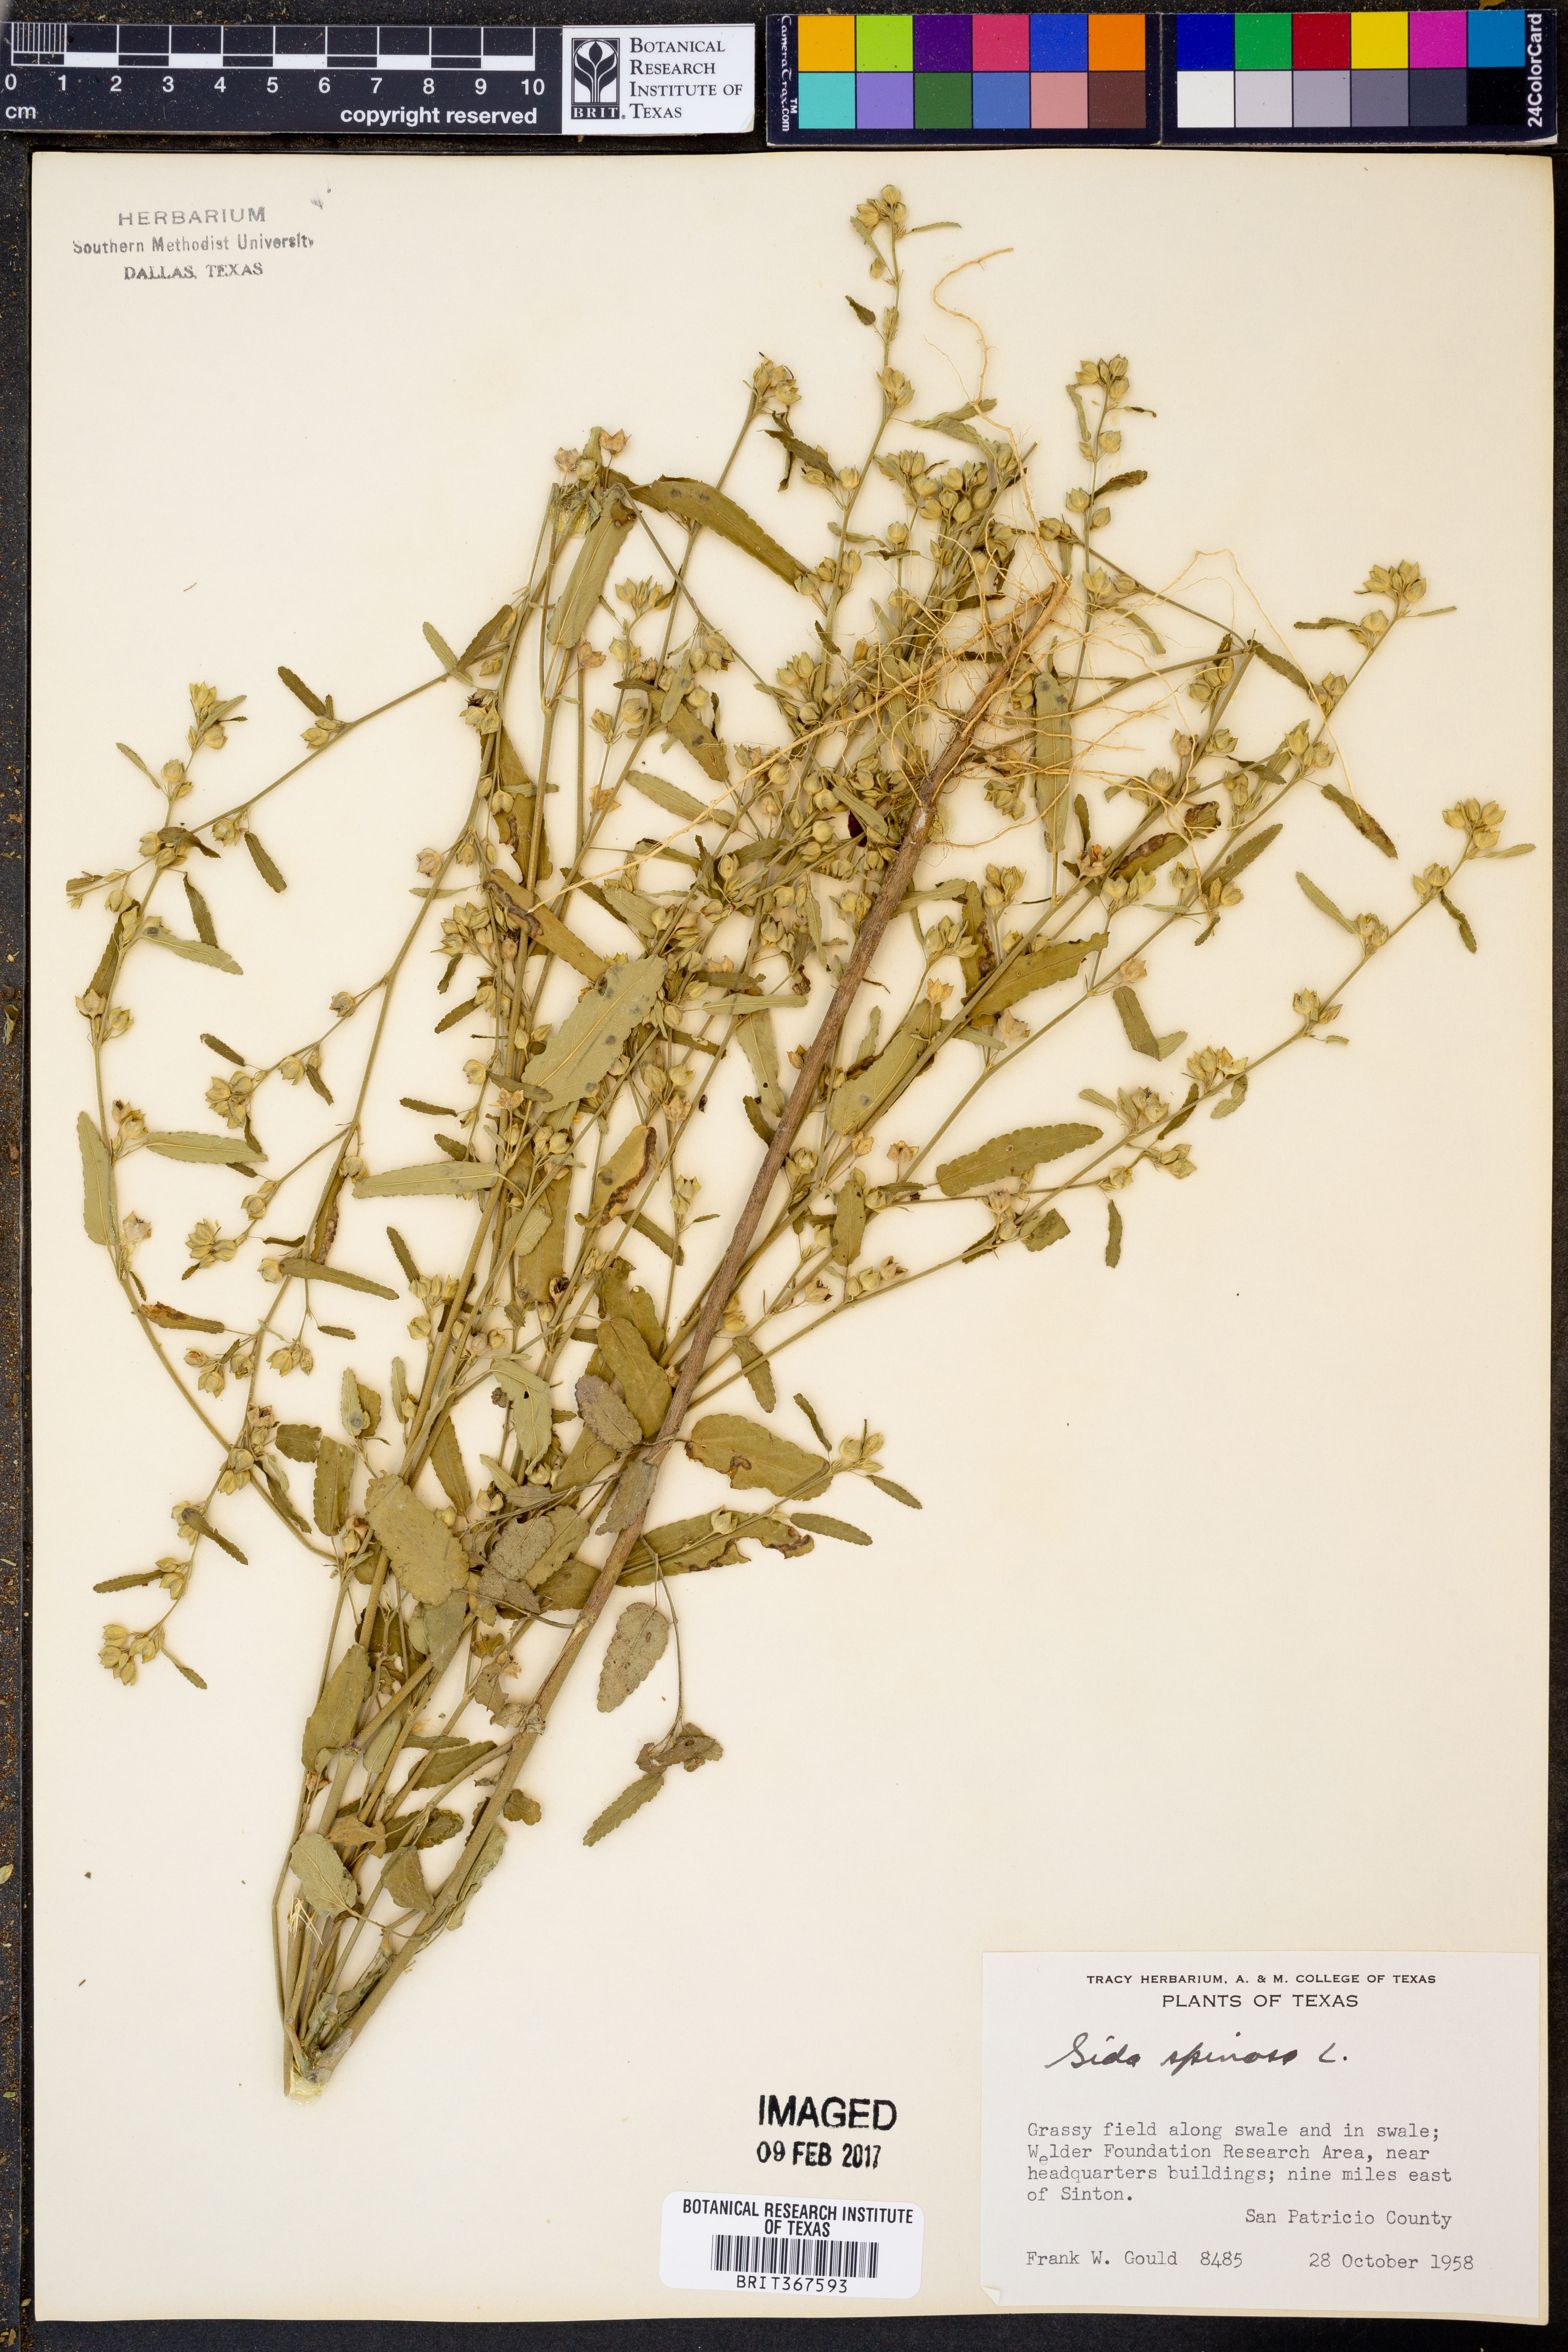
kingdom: Plantae
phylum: Tracheophyta
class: Magnoliopsida
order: Malvales
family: Malvaceae
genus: Sida
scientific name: Sida spinosa
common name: Prickly fanpetals
